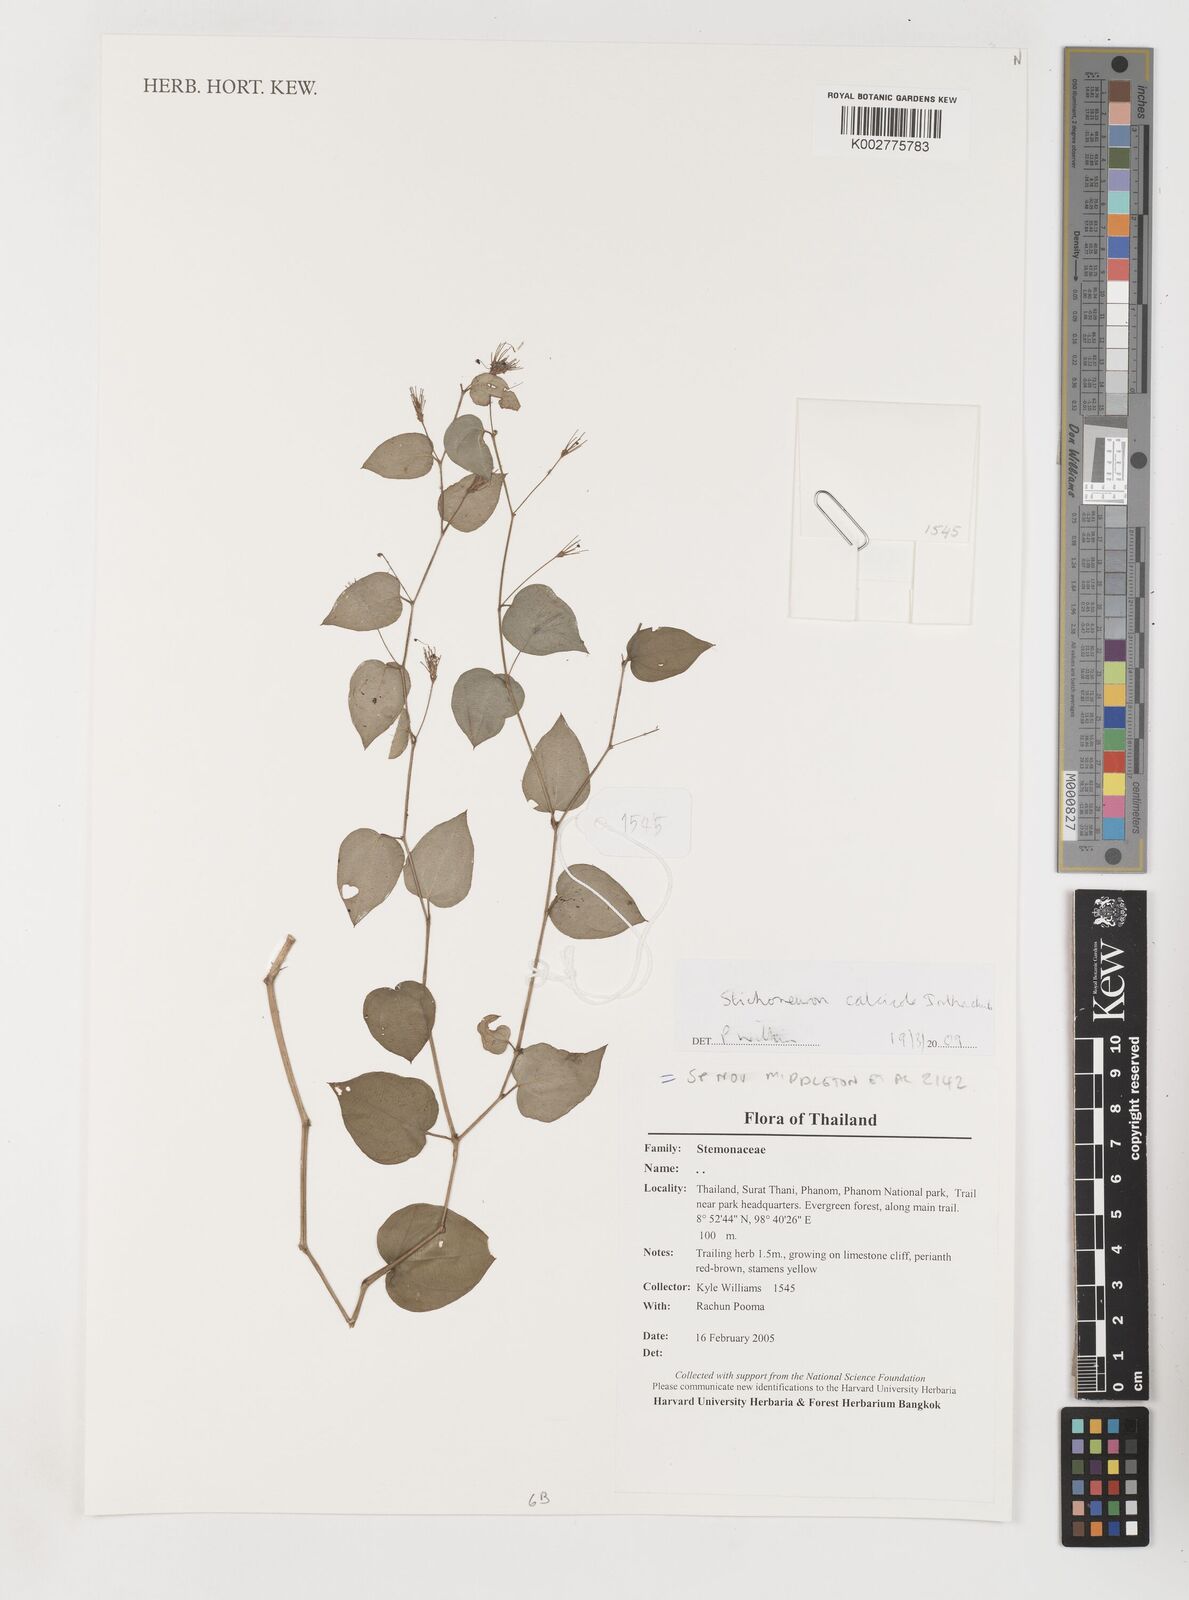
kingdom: Plantae
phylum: Tracheophyta
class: Liliopsida
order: Pandanales
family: Stemonaceae
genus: Stichoneuron
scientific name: Stichoneuron calcicola
